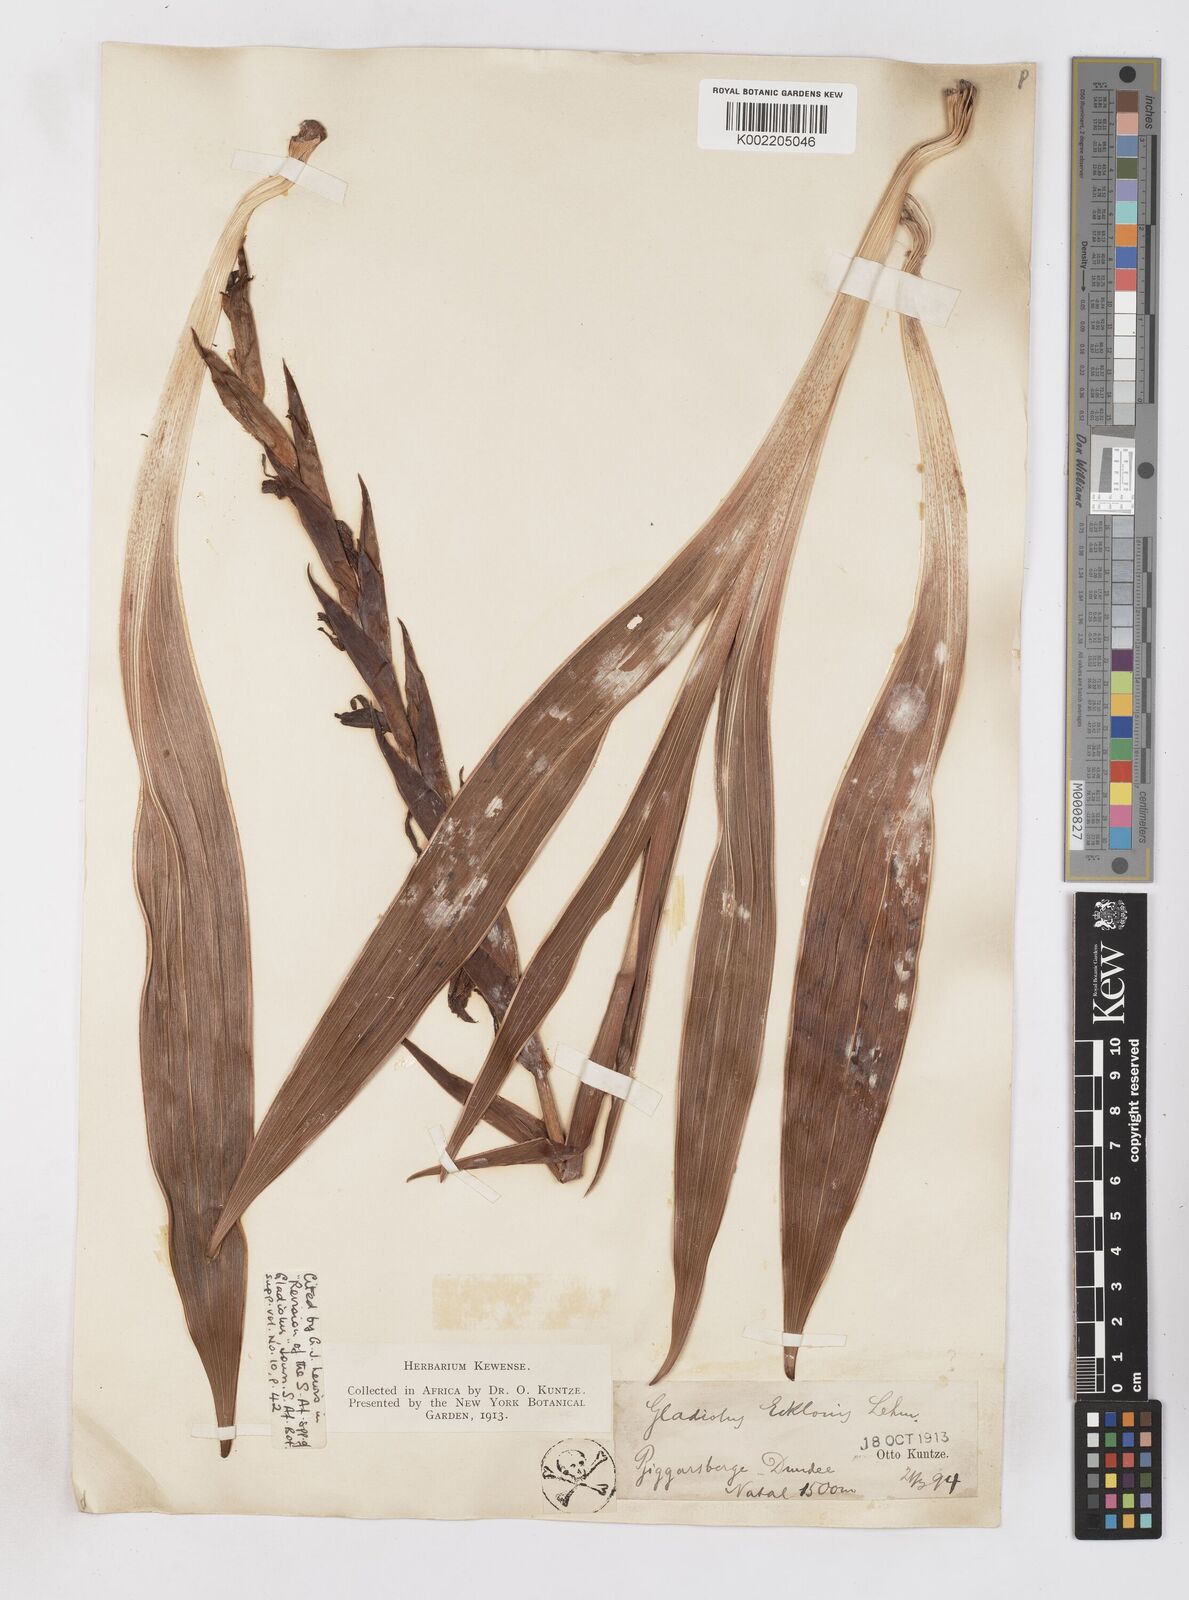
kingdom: Plantae
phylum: Tracheophyta
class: Liliopsida
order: Asparagales
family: Iridaceae
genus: Gladiolus
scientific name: Gladiolus ecklonii
